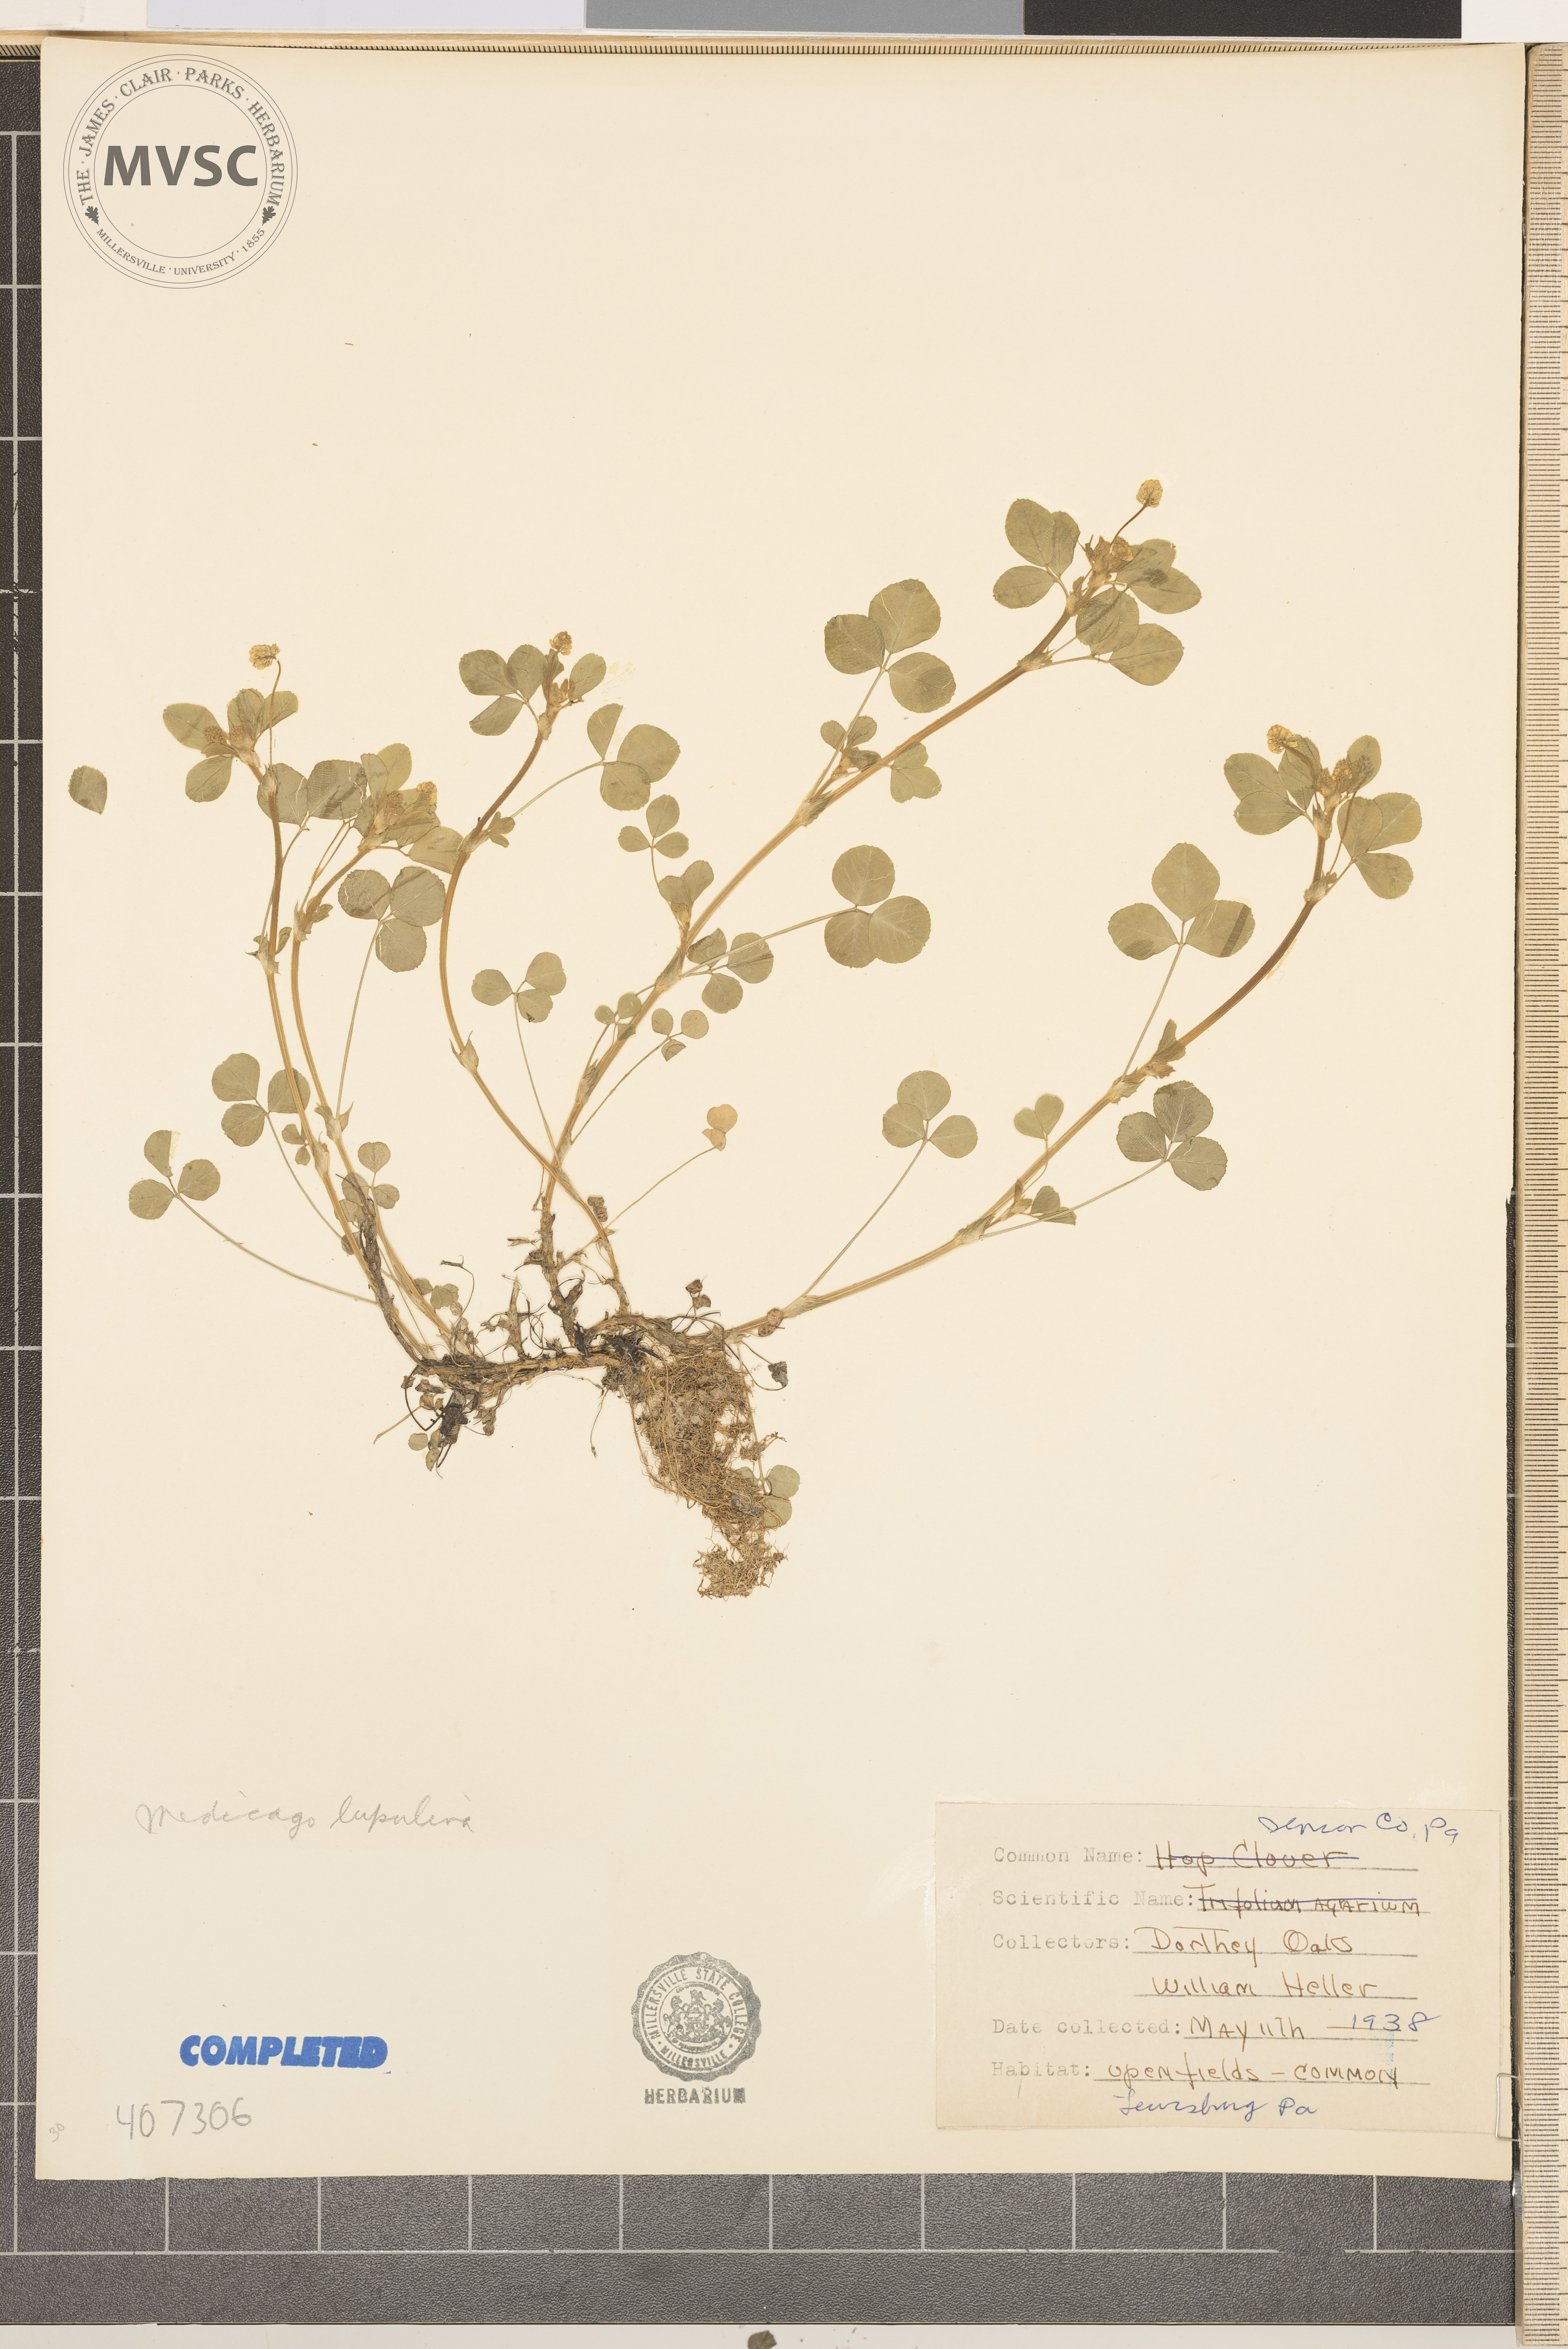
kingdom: Plantae
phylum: Tracheophyta
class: Magnoliopsida
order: Fabales
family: Fabaceae
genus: Medicago
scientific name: Medicago lupulina
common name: Black medick
